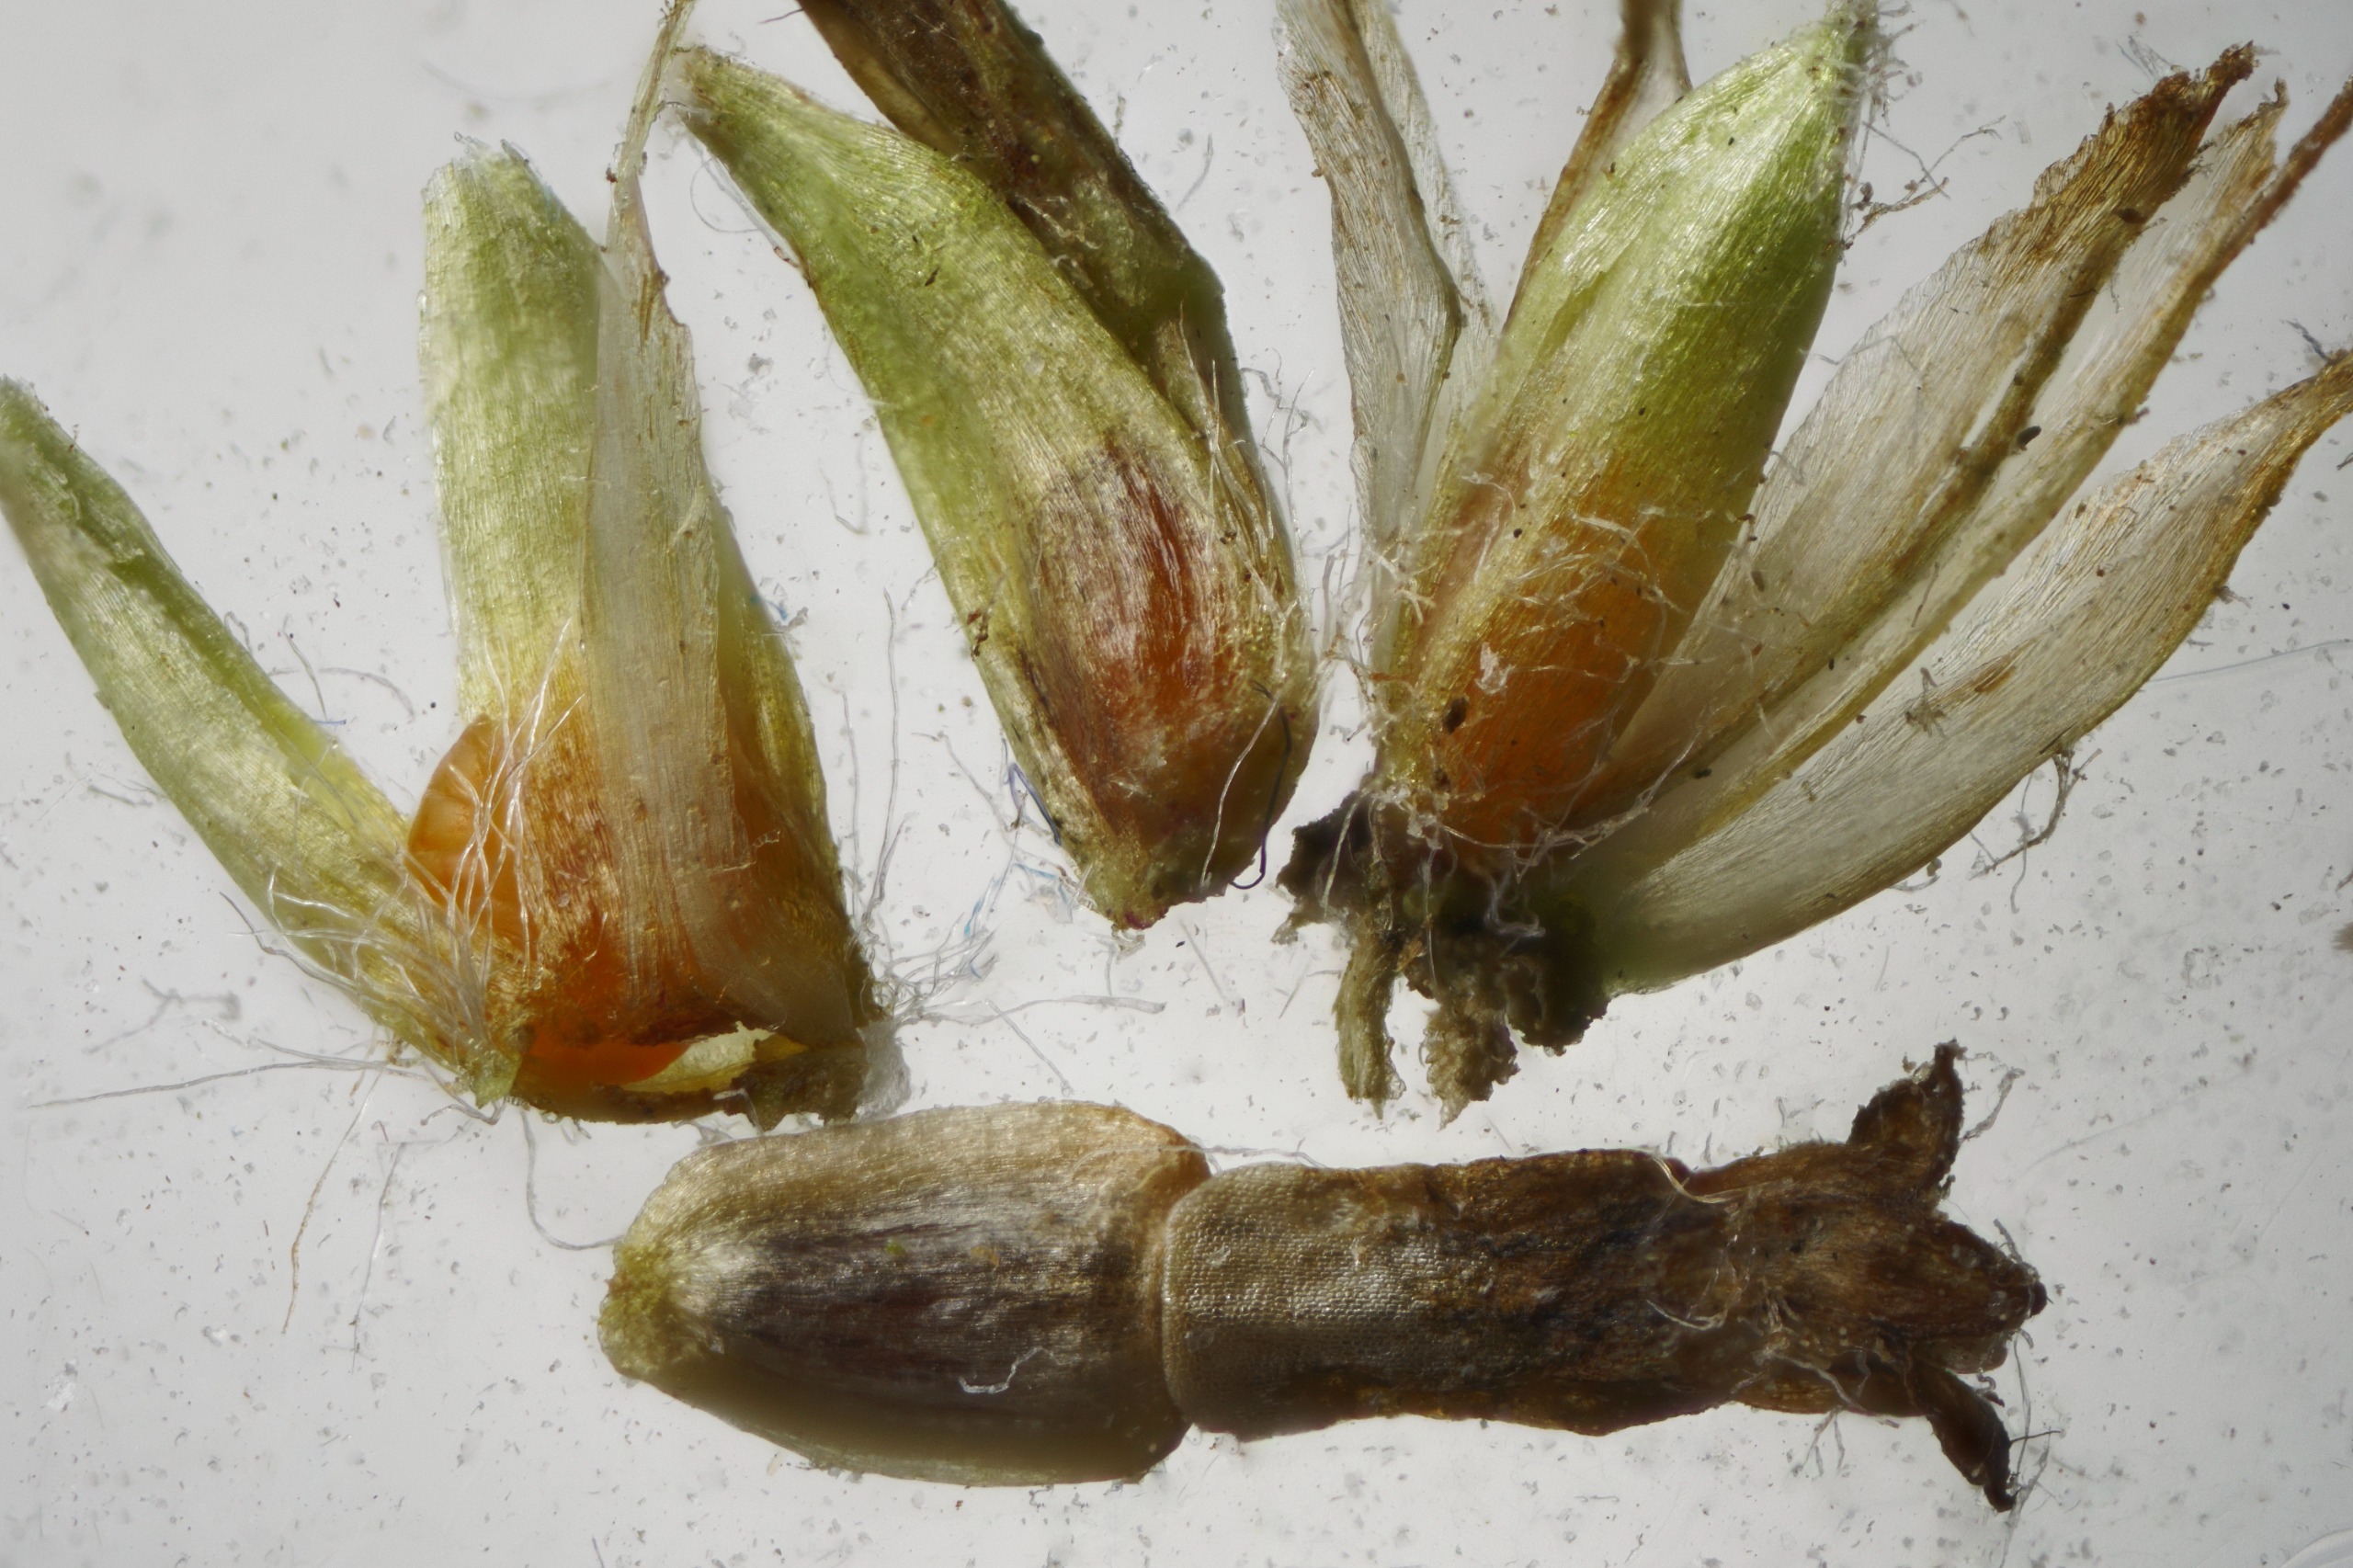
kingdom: Animalia
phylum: Arthropoda
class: Insecta
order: Diptera
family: Cecidomyiidae
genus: Rhopalomyia
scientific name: Rhopalomyia palearum
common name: Lille nyserøllikegalmyg
